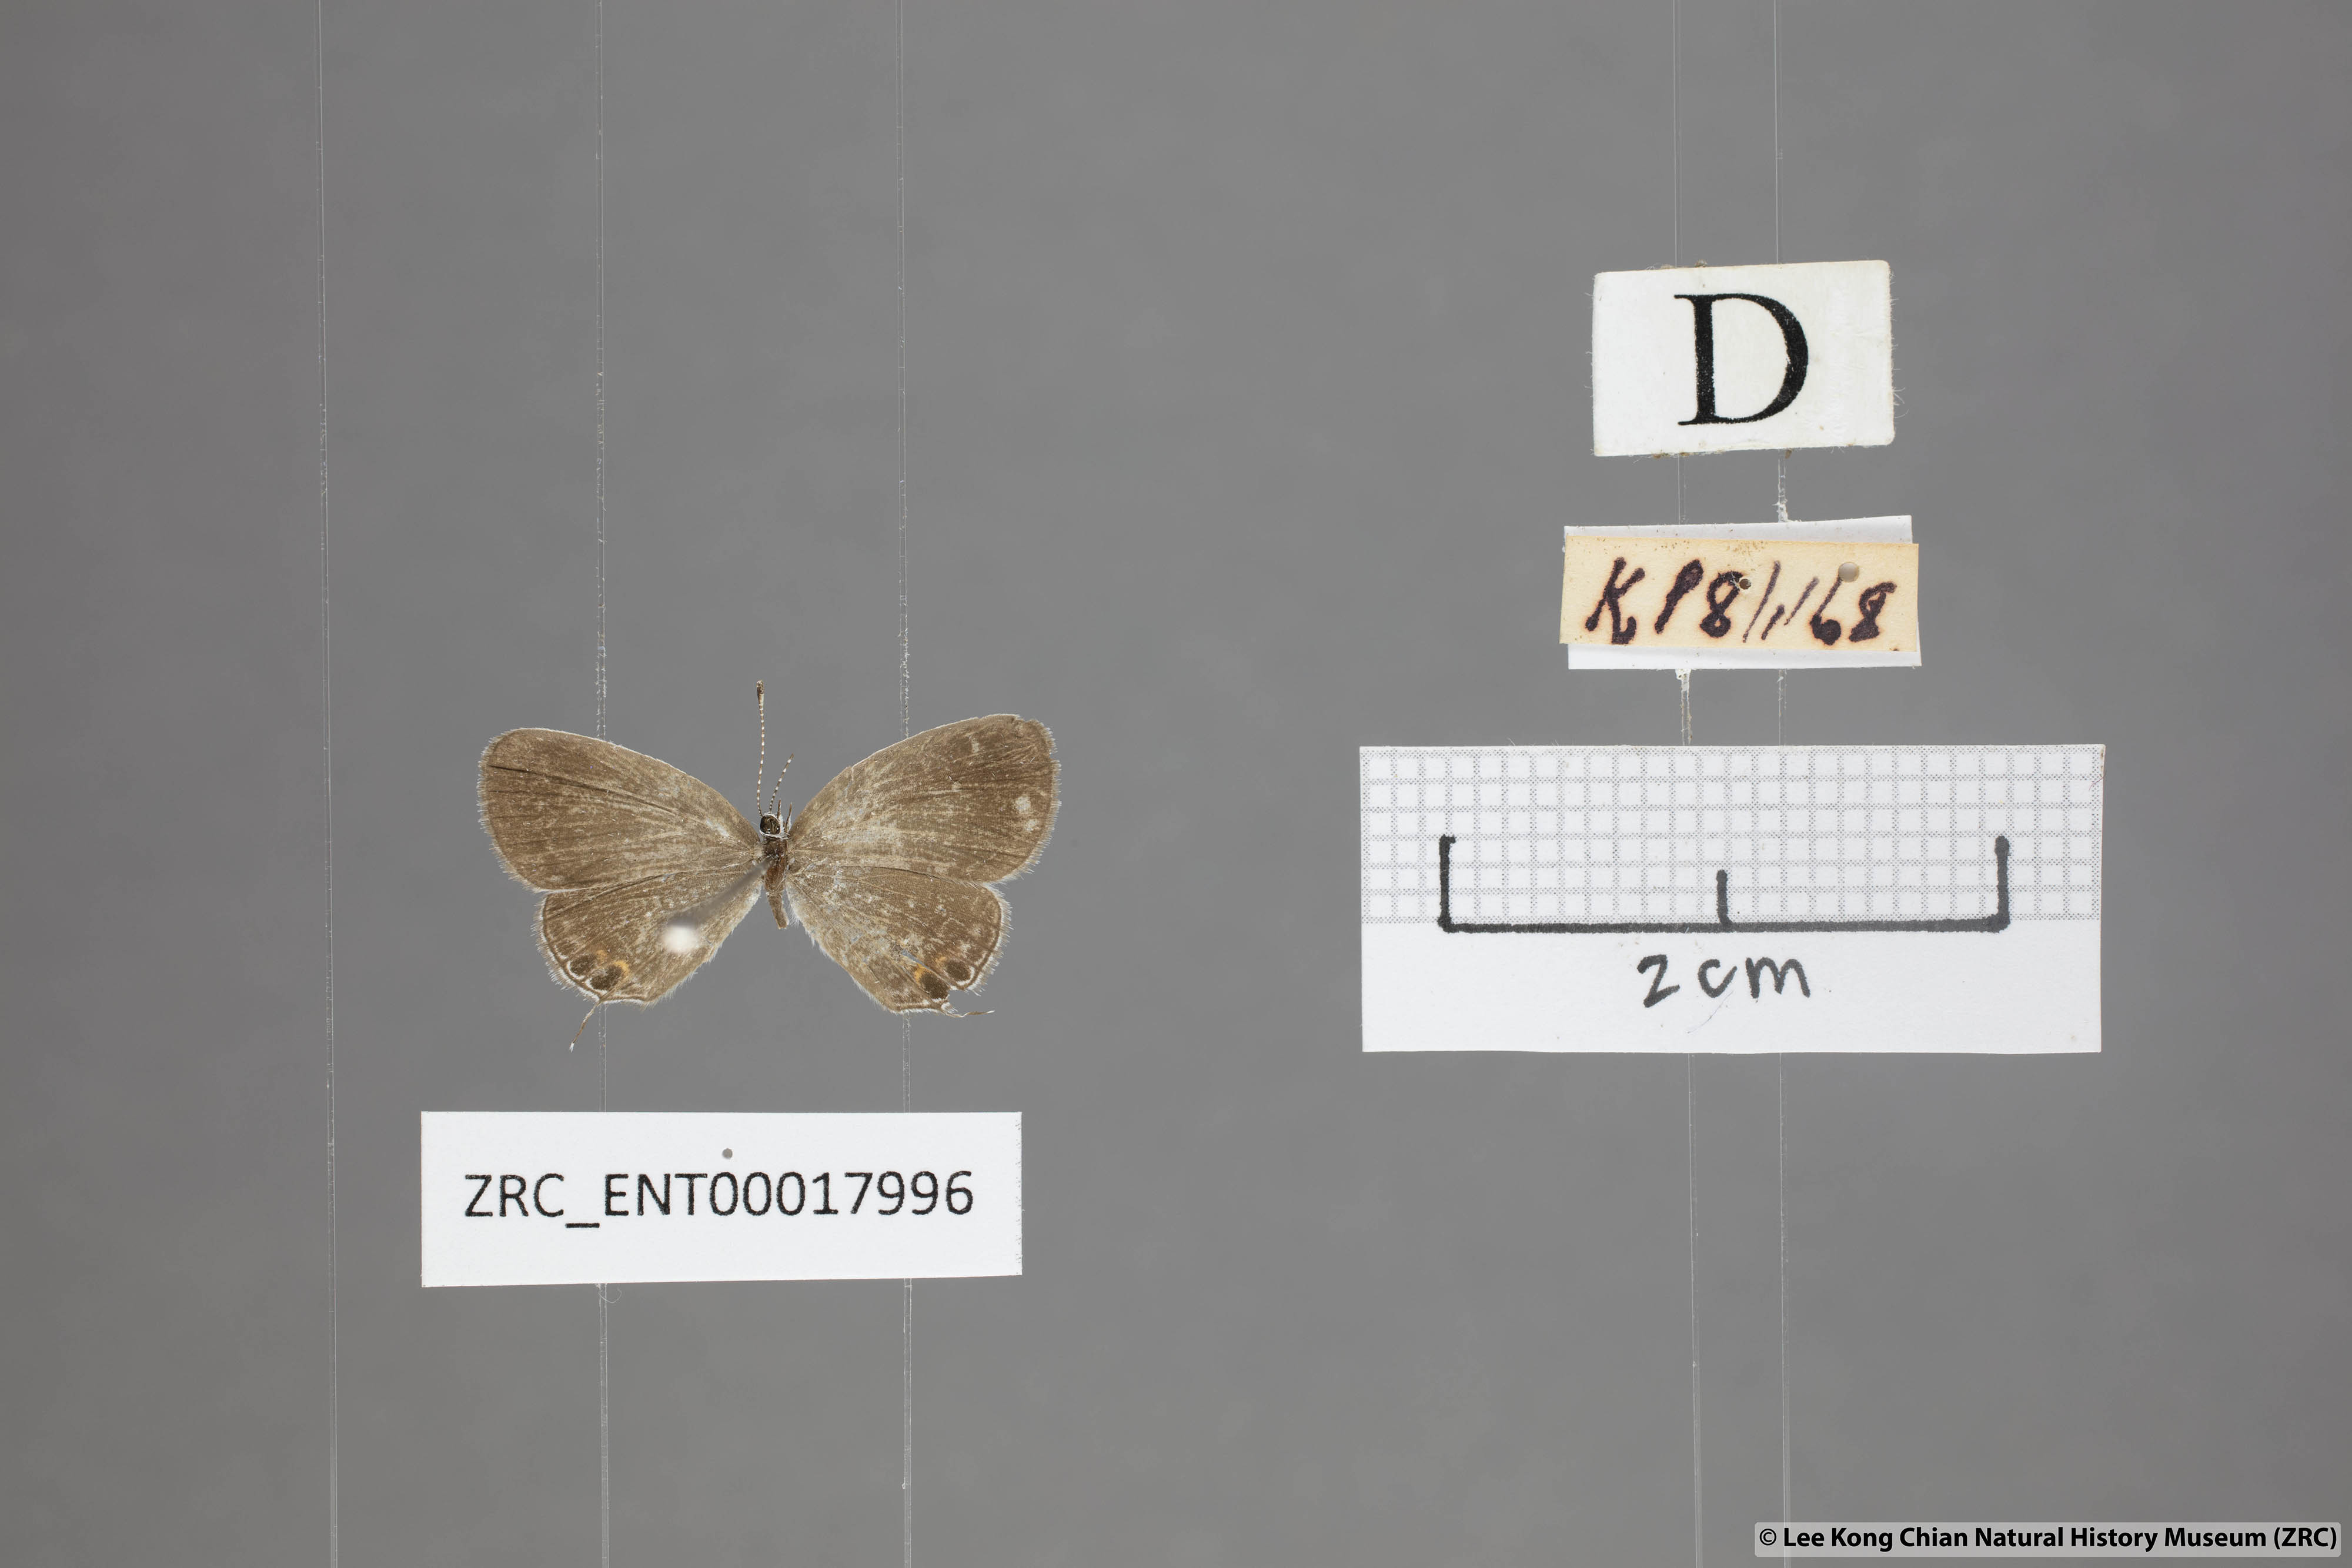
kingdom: Animalia
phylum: Arthropoda
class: Insecta
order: Lepidoptera
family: Lycaenidae
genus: Everes
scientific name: Everes lacturnus
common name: Orange-tipped pea-blue
